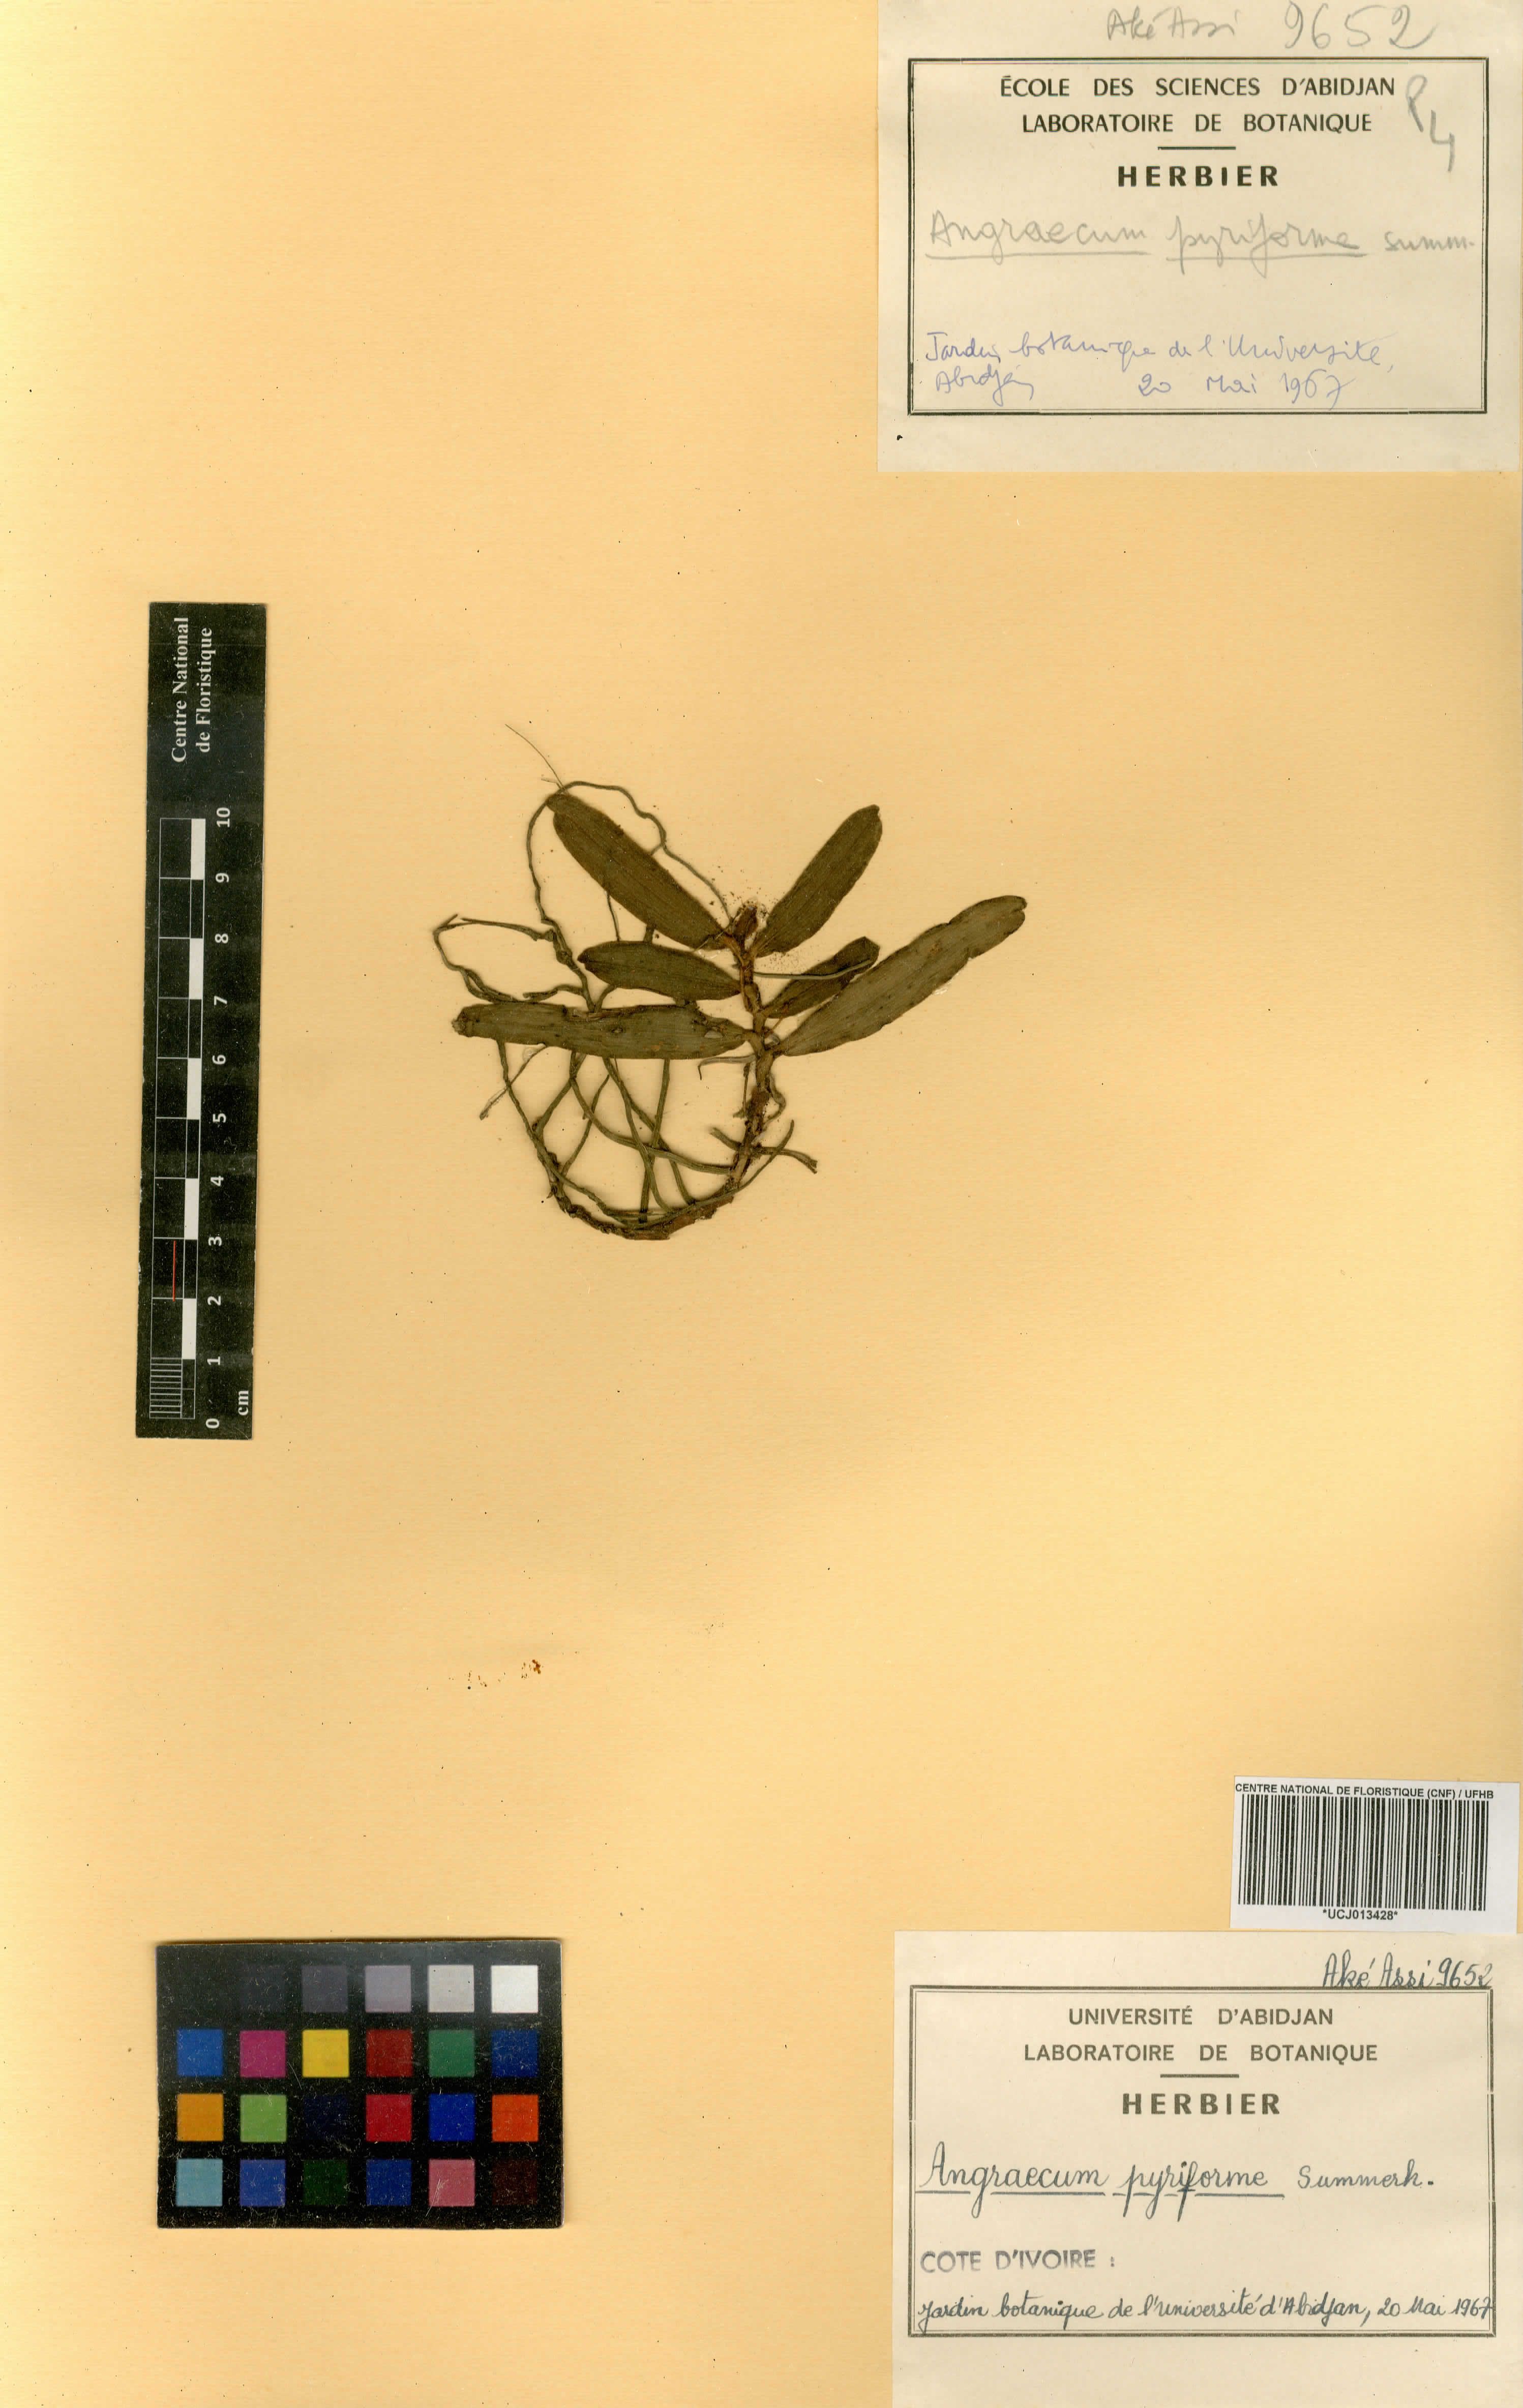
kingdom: Plantae
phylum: Tracheophyta
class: Liliopsida
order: Asparagales
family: Orchidaceae
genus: Angraecum
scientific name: Angraecum pyriforme
